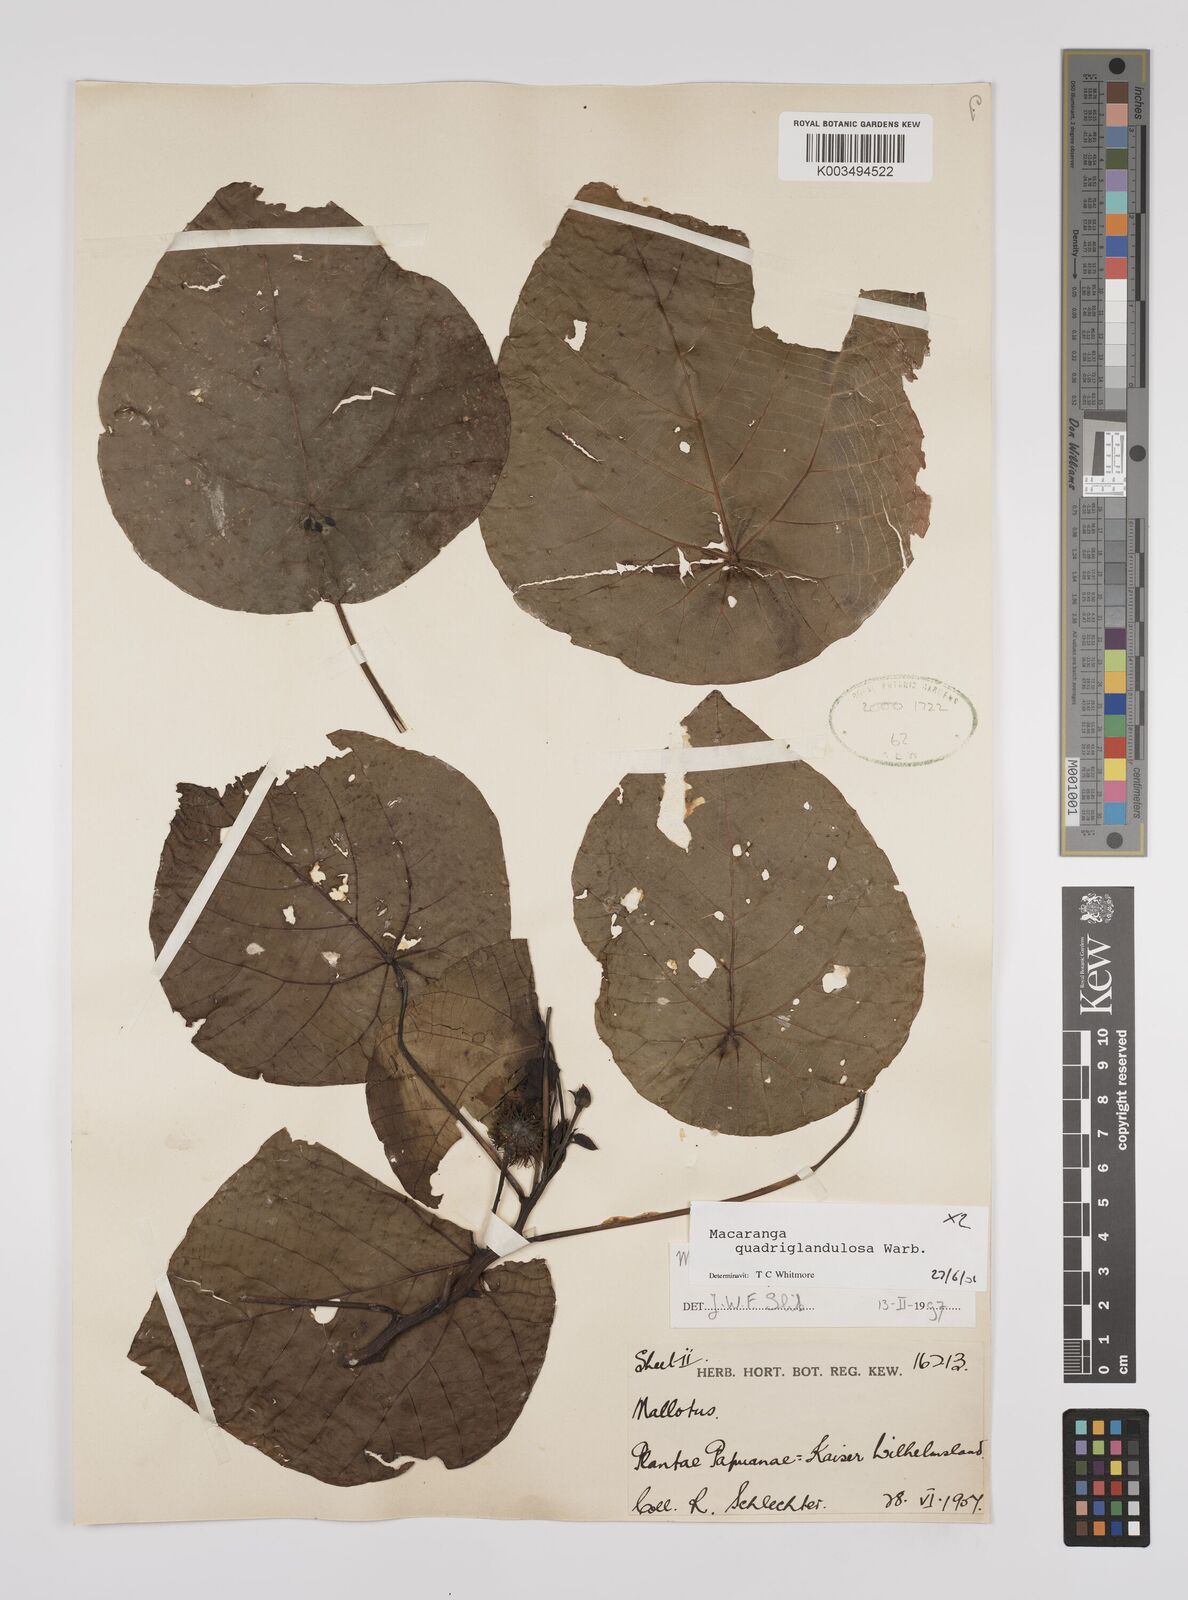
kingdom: Plantae
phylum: Tracheophyta
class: Magnoliopsida
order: Malpighiales
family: Euphorbiaceae
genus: Macaranga
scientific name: Macaranga quadriglandulosa
